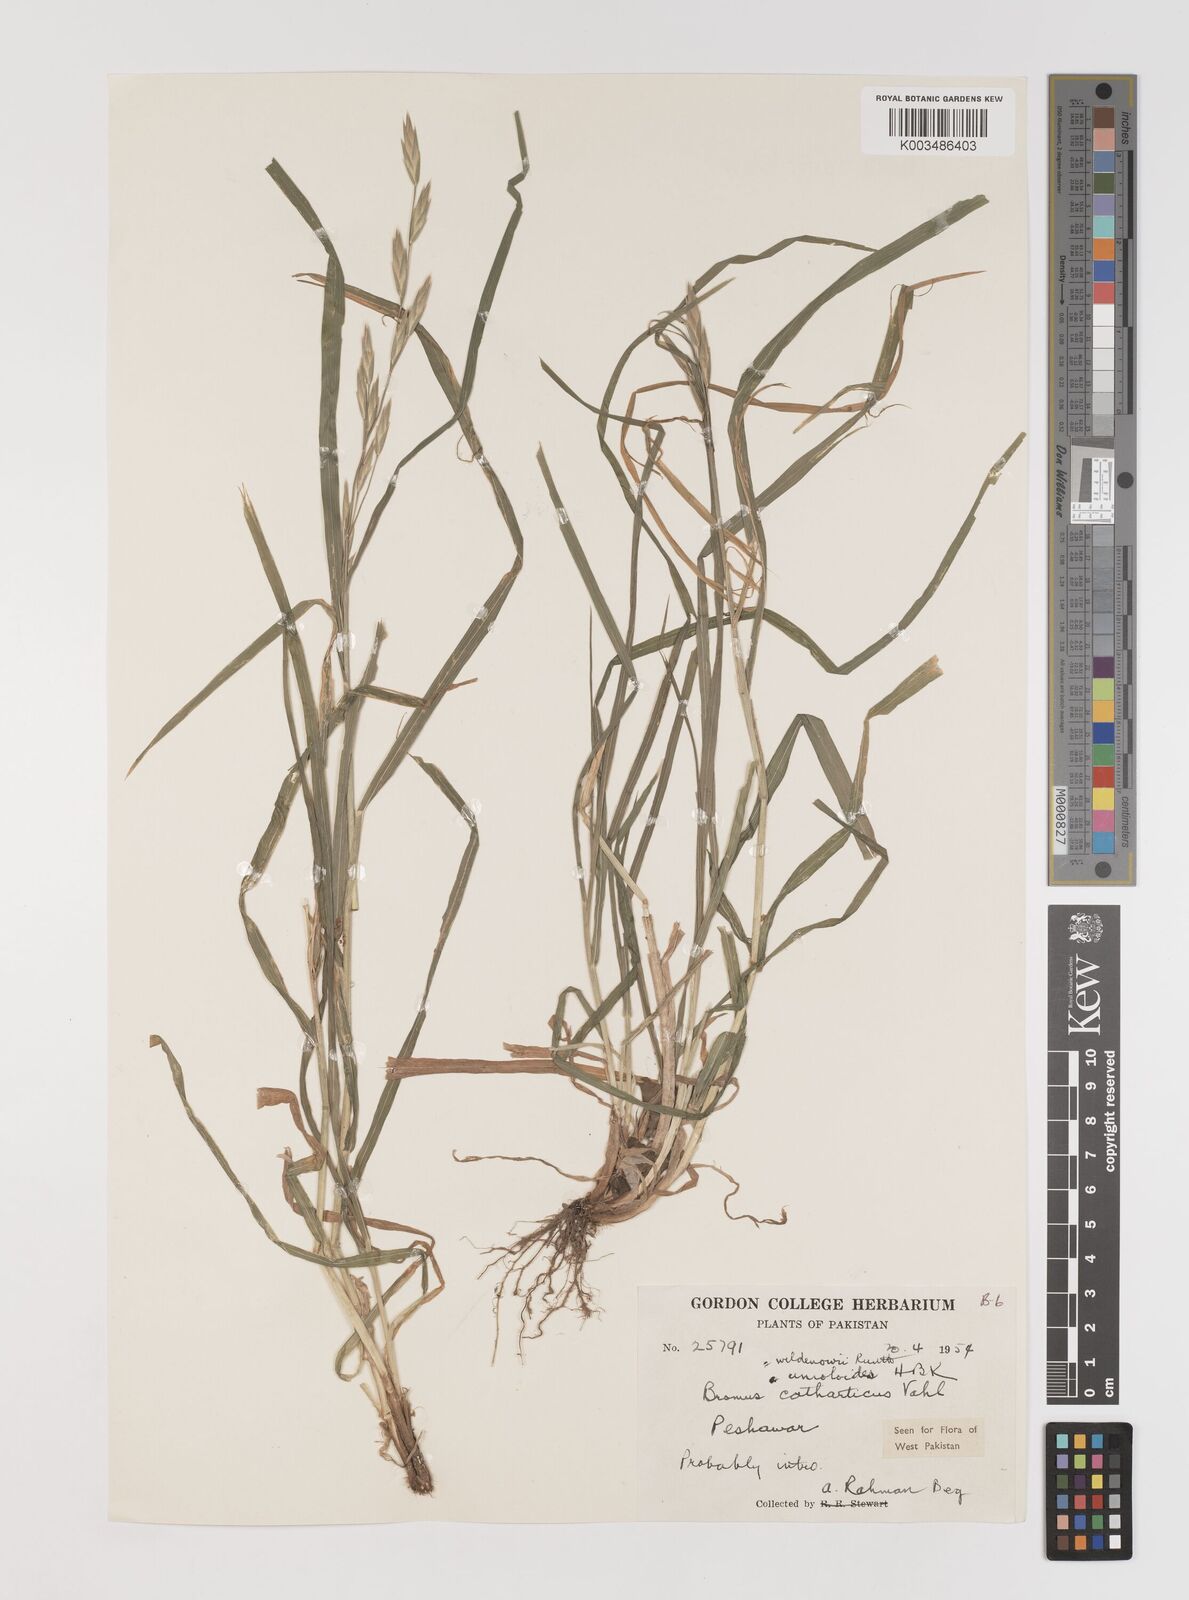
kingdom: Plantae
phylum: Tracheophyta
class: Liliopsida
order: Poales
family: Poaceae
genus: Bromus
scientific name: Bromus catharticus
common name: Rescuegrass
